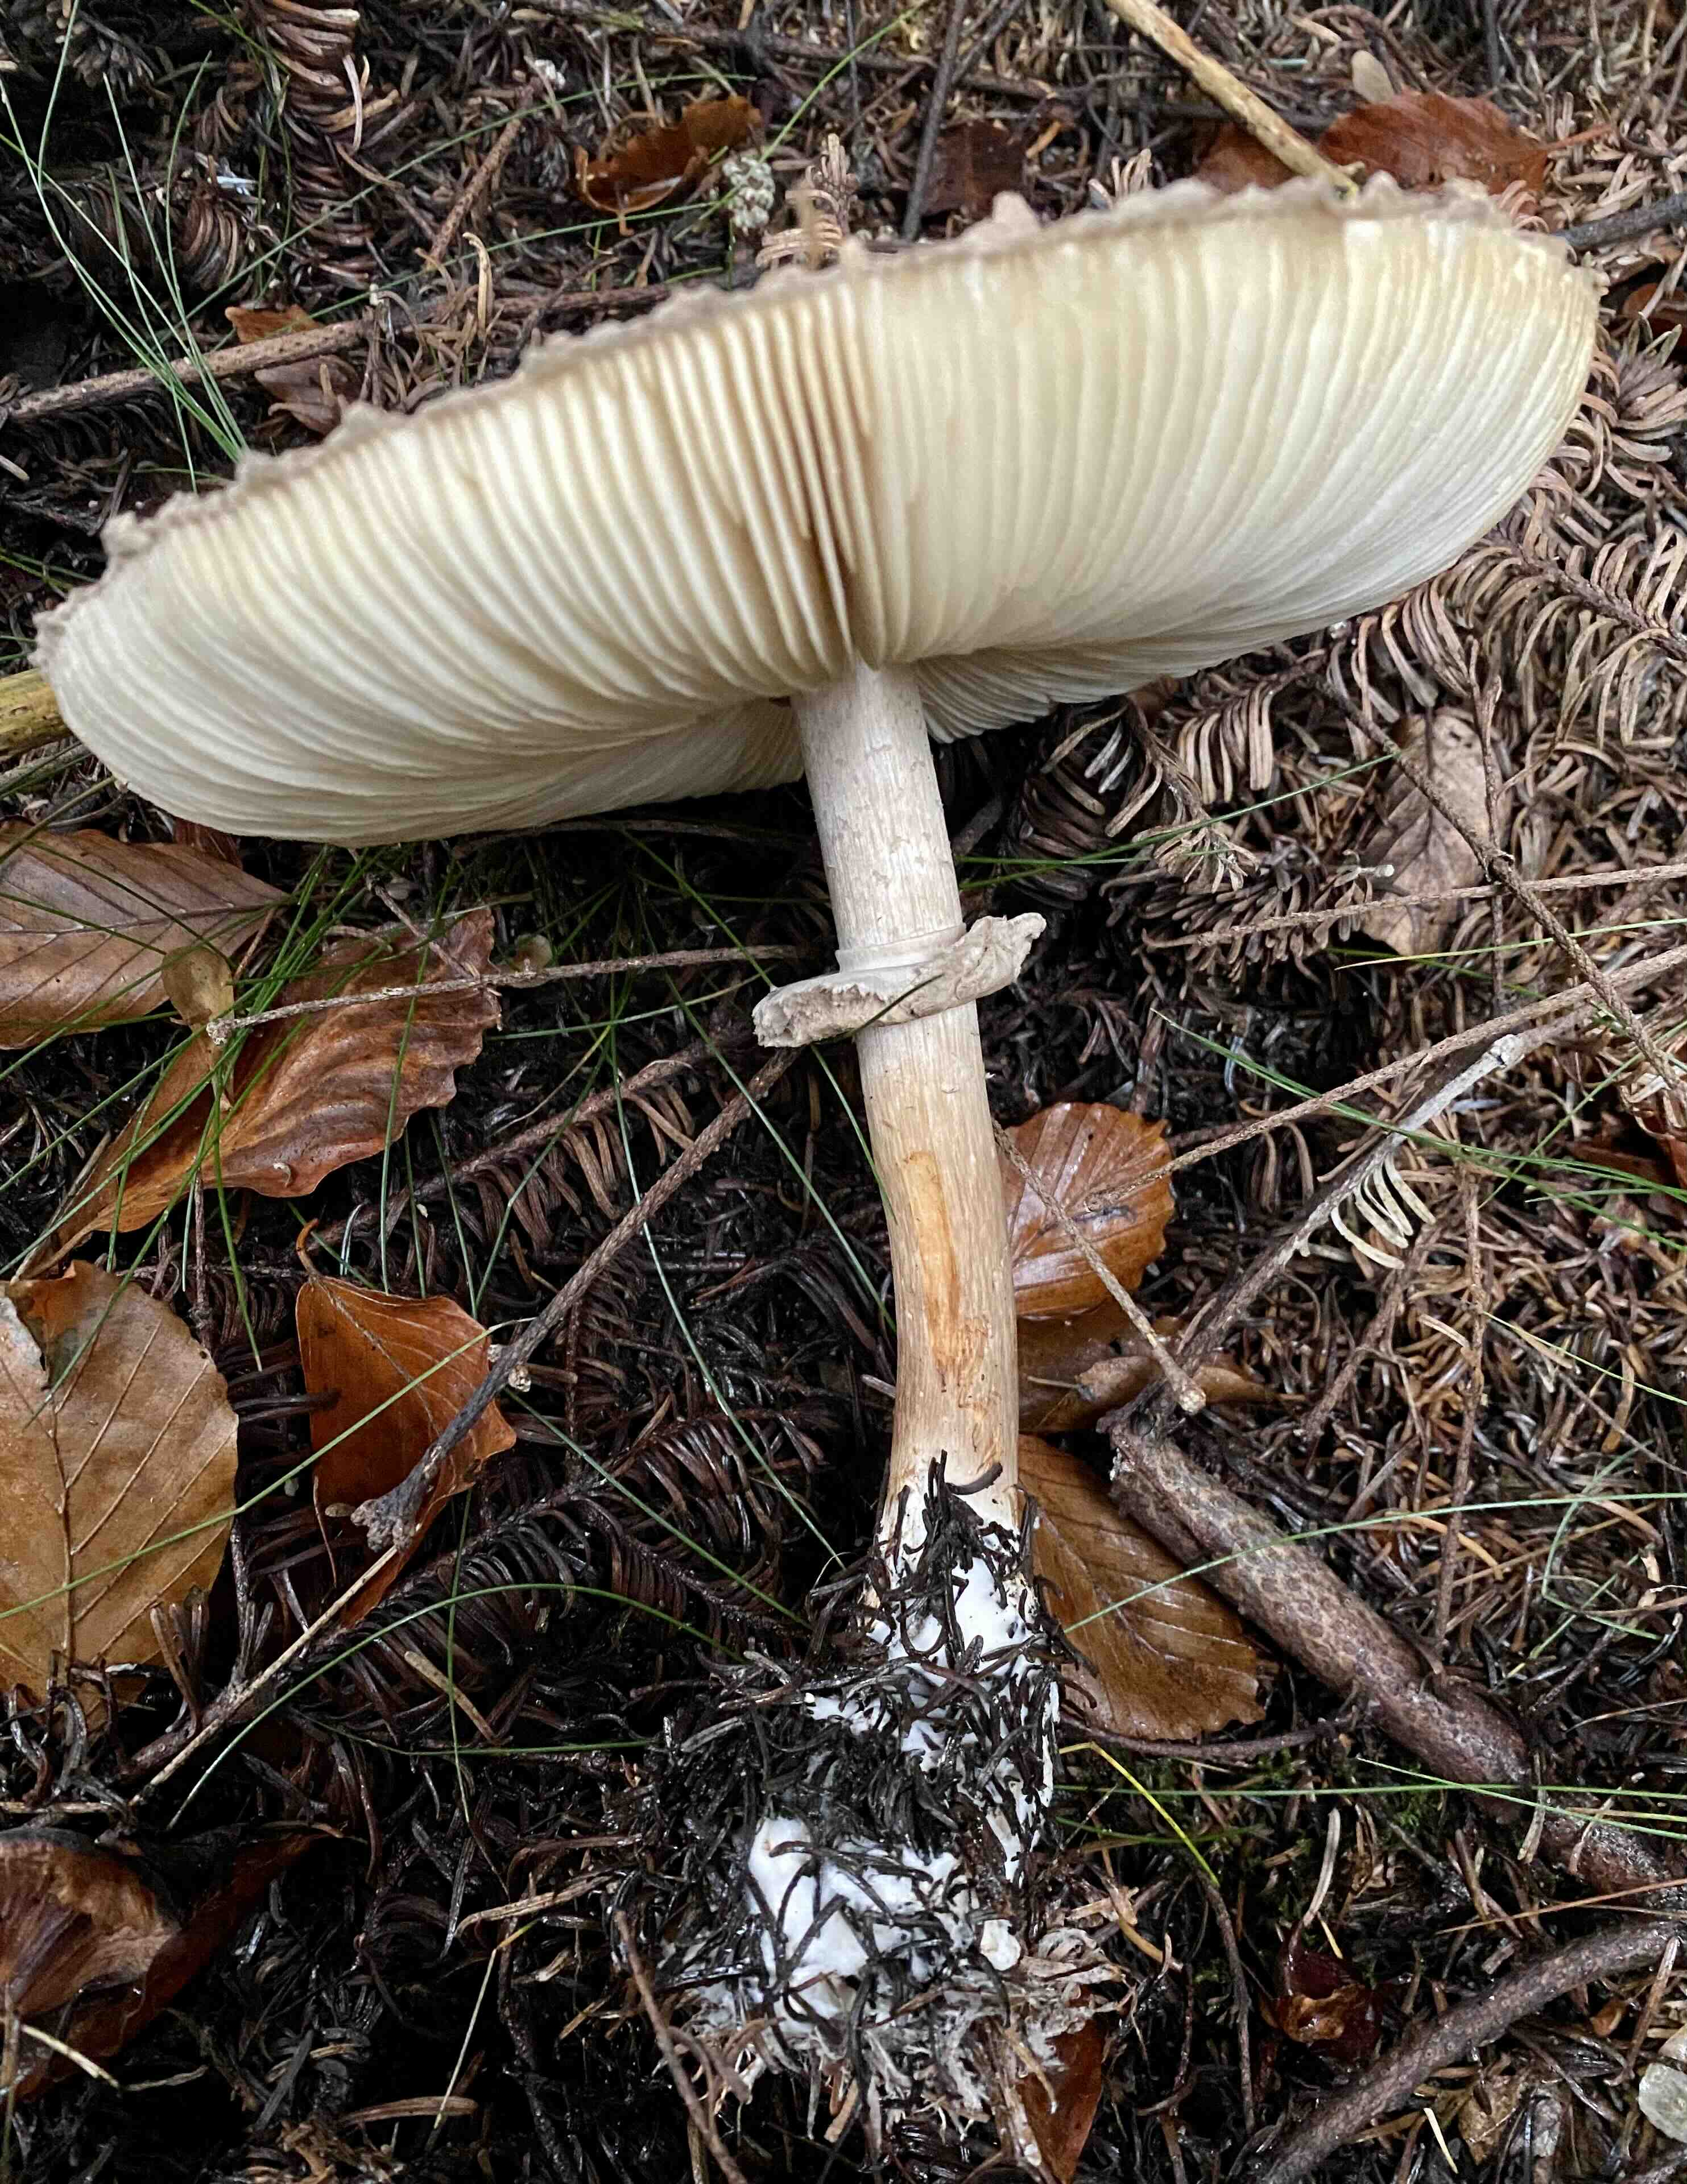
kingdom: Fungi
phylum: Basidiomycota
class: Agaricomycetes
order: Agaricales
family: Agaricaceae
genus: Chlorophyllum
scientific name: Chlorophyllum olivieri
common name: almindelig rabarberhat
